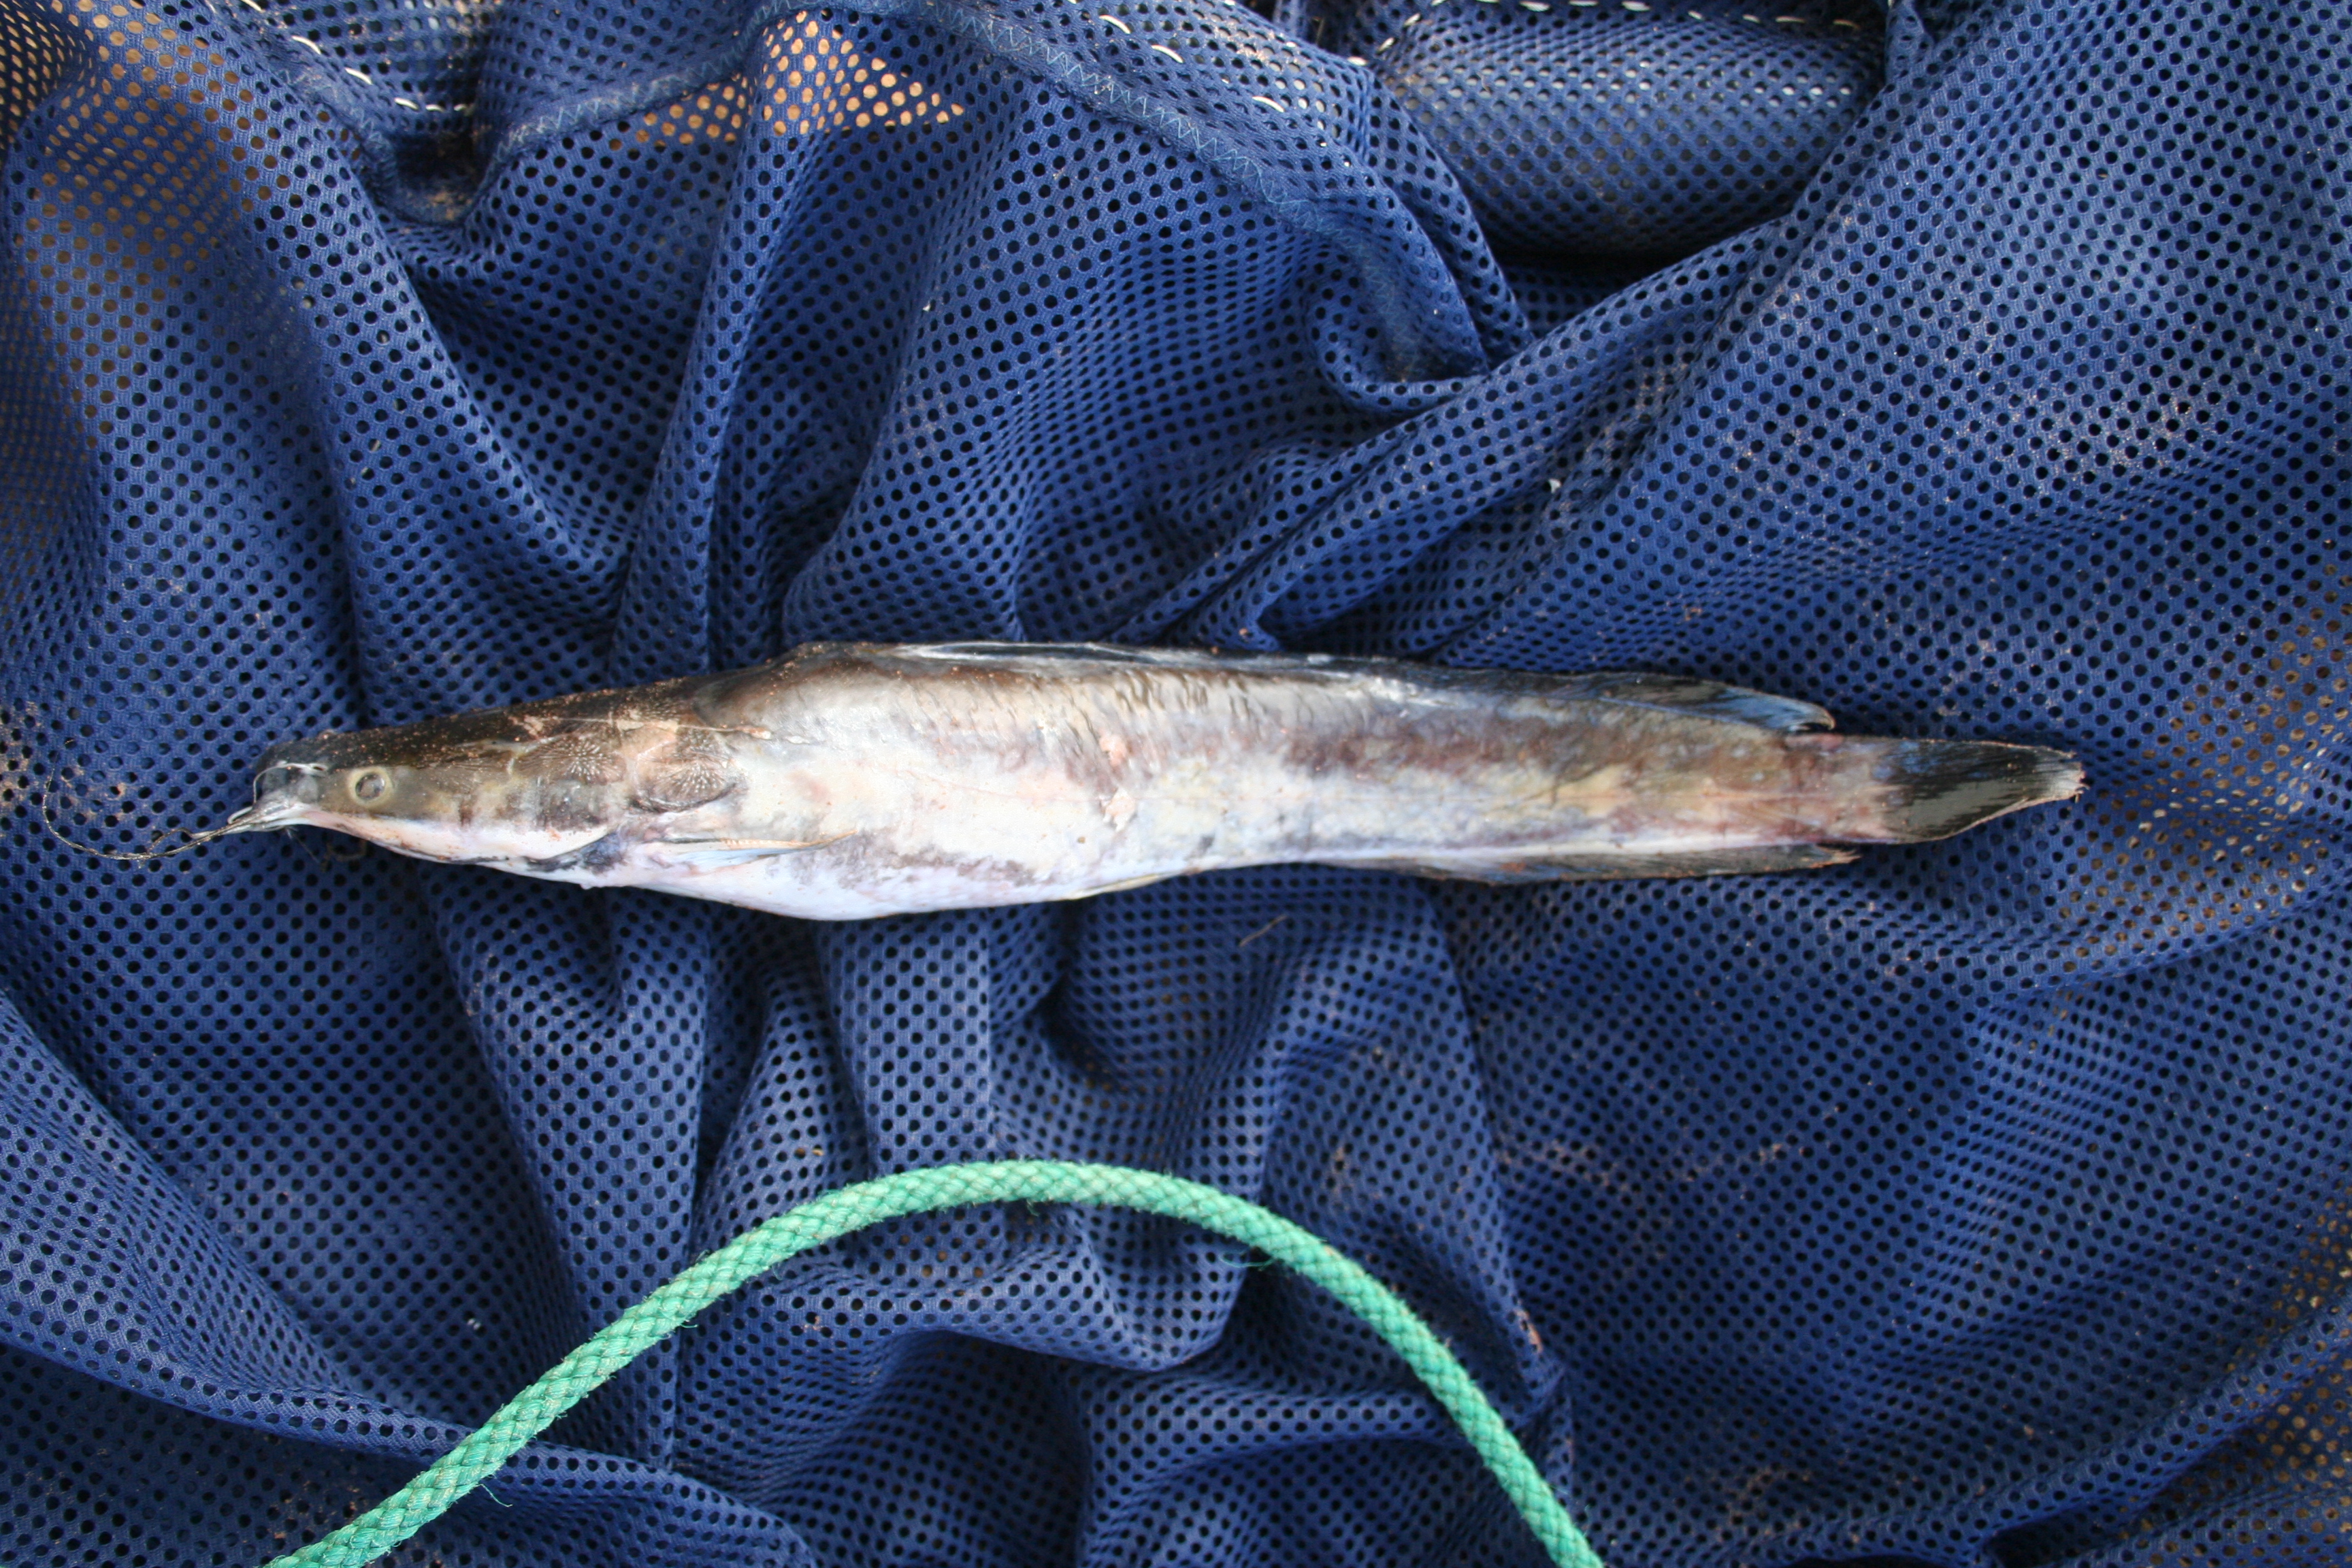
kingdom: Animalia
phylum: Chordata
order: Siluriformes
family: Clariidae
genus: Clarias
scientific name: Clarias gariepinus
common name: African catfish
